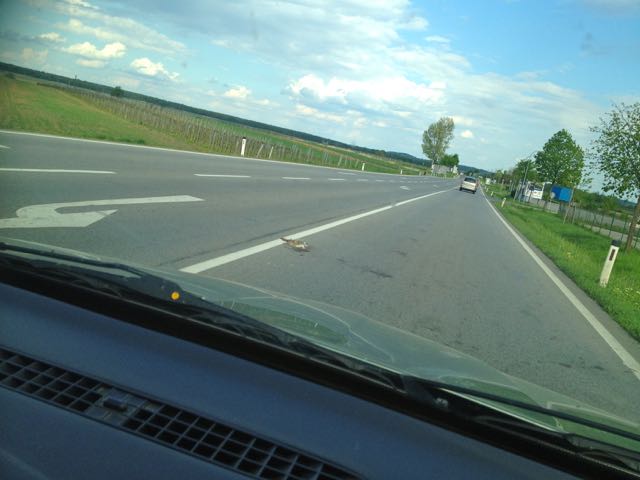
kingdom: Animalia
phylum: Chordata
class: Mammalia
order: Lagomorpha
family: Leporidae
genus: Lepus
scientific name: Lepus europaeus
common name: European hare
